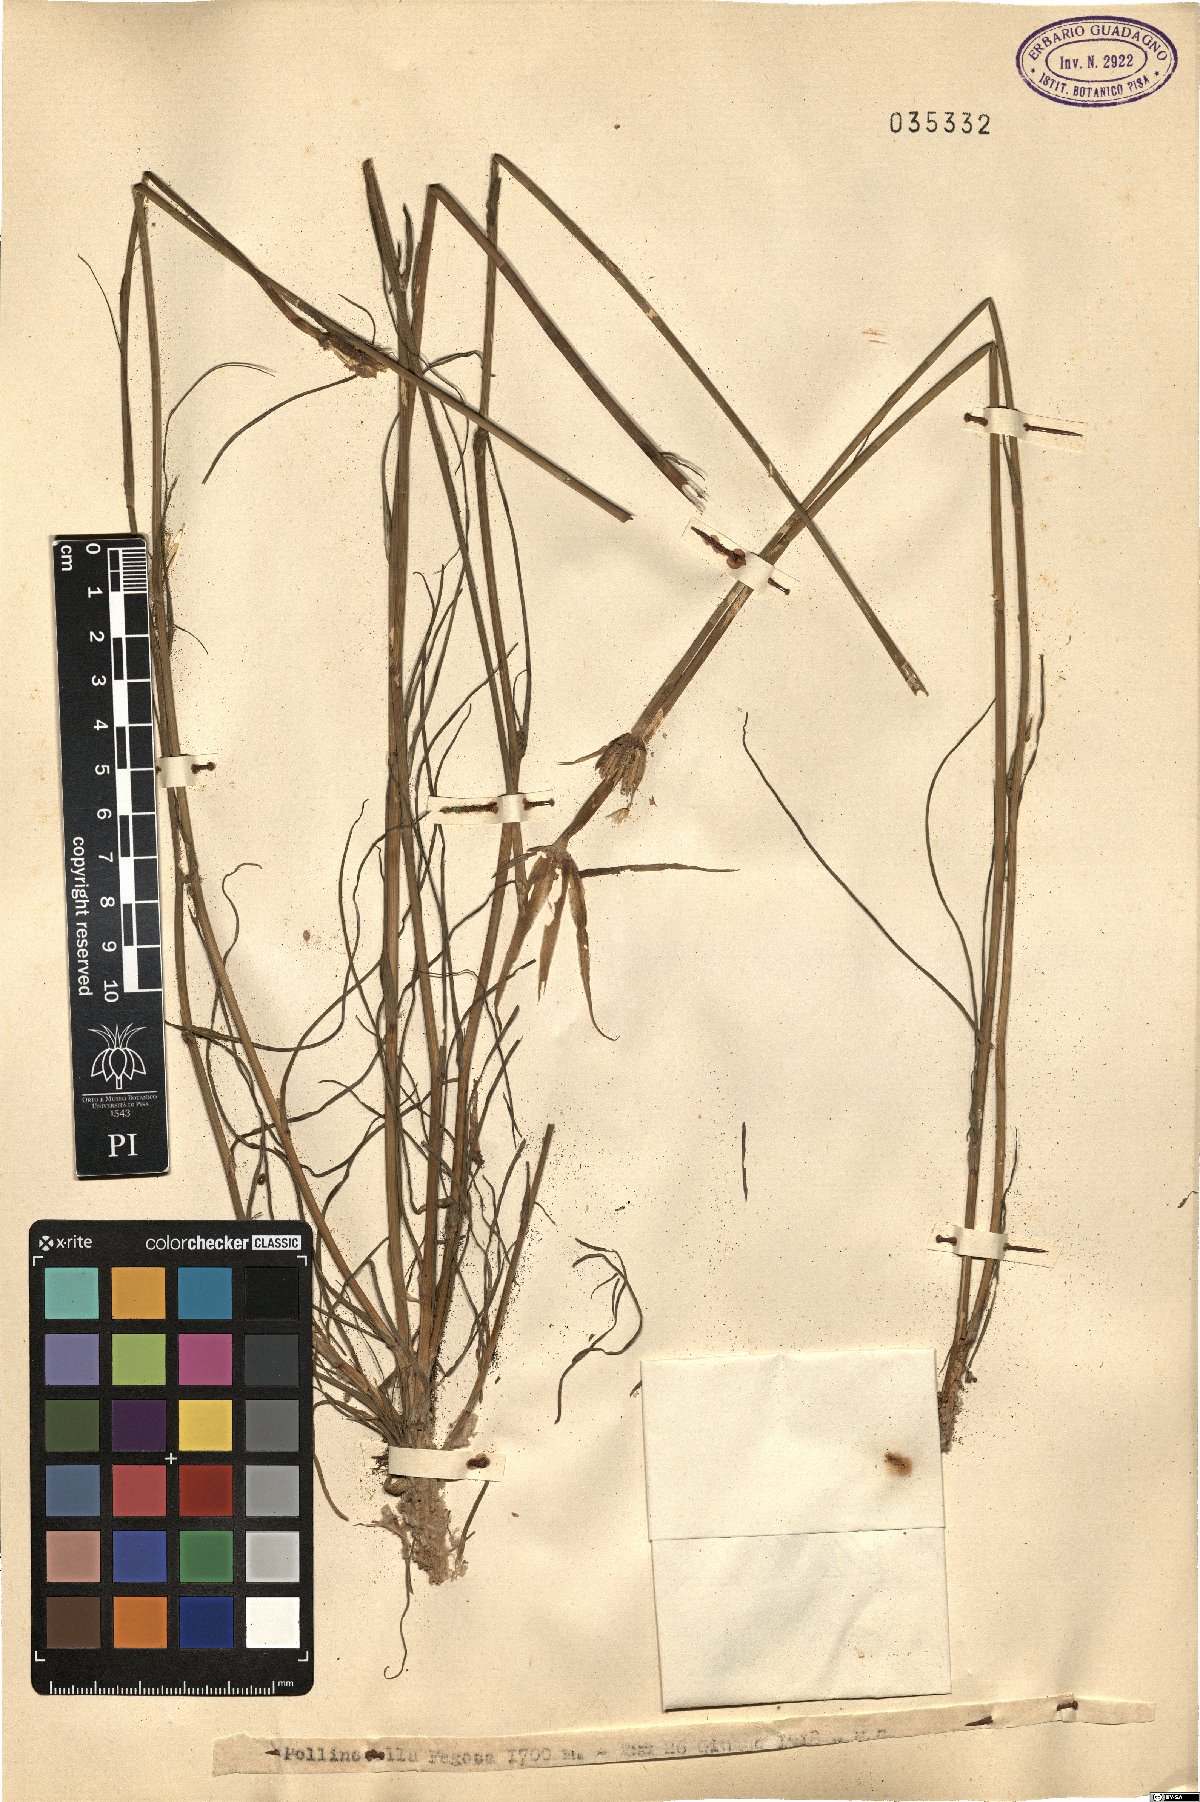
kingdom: Plantae
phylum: Tracheophyta
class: Magnoliopsida
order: Asterales
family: Asteraceae
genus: Geropogon
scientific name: Geropogon
